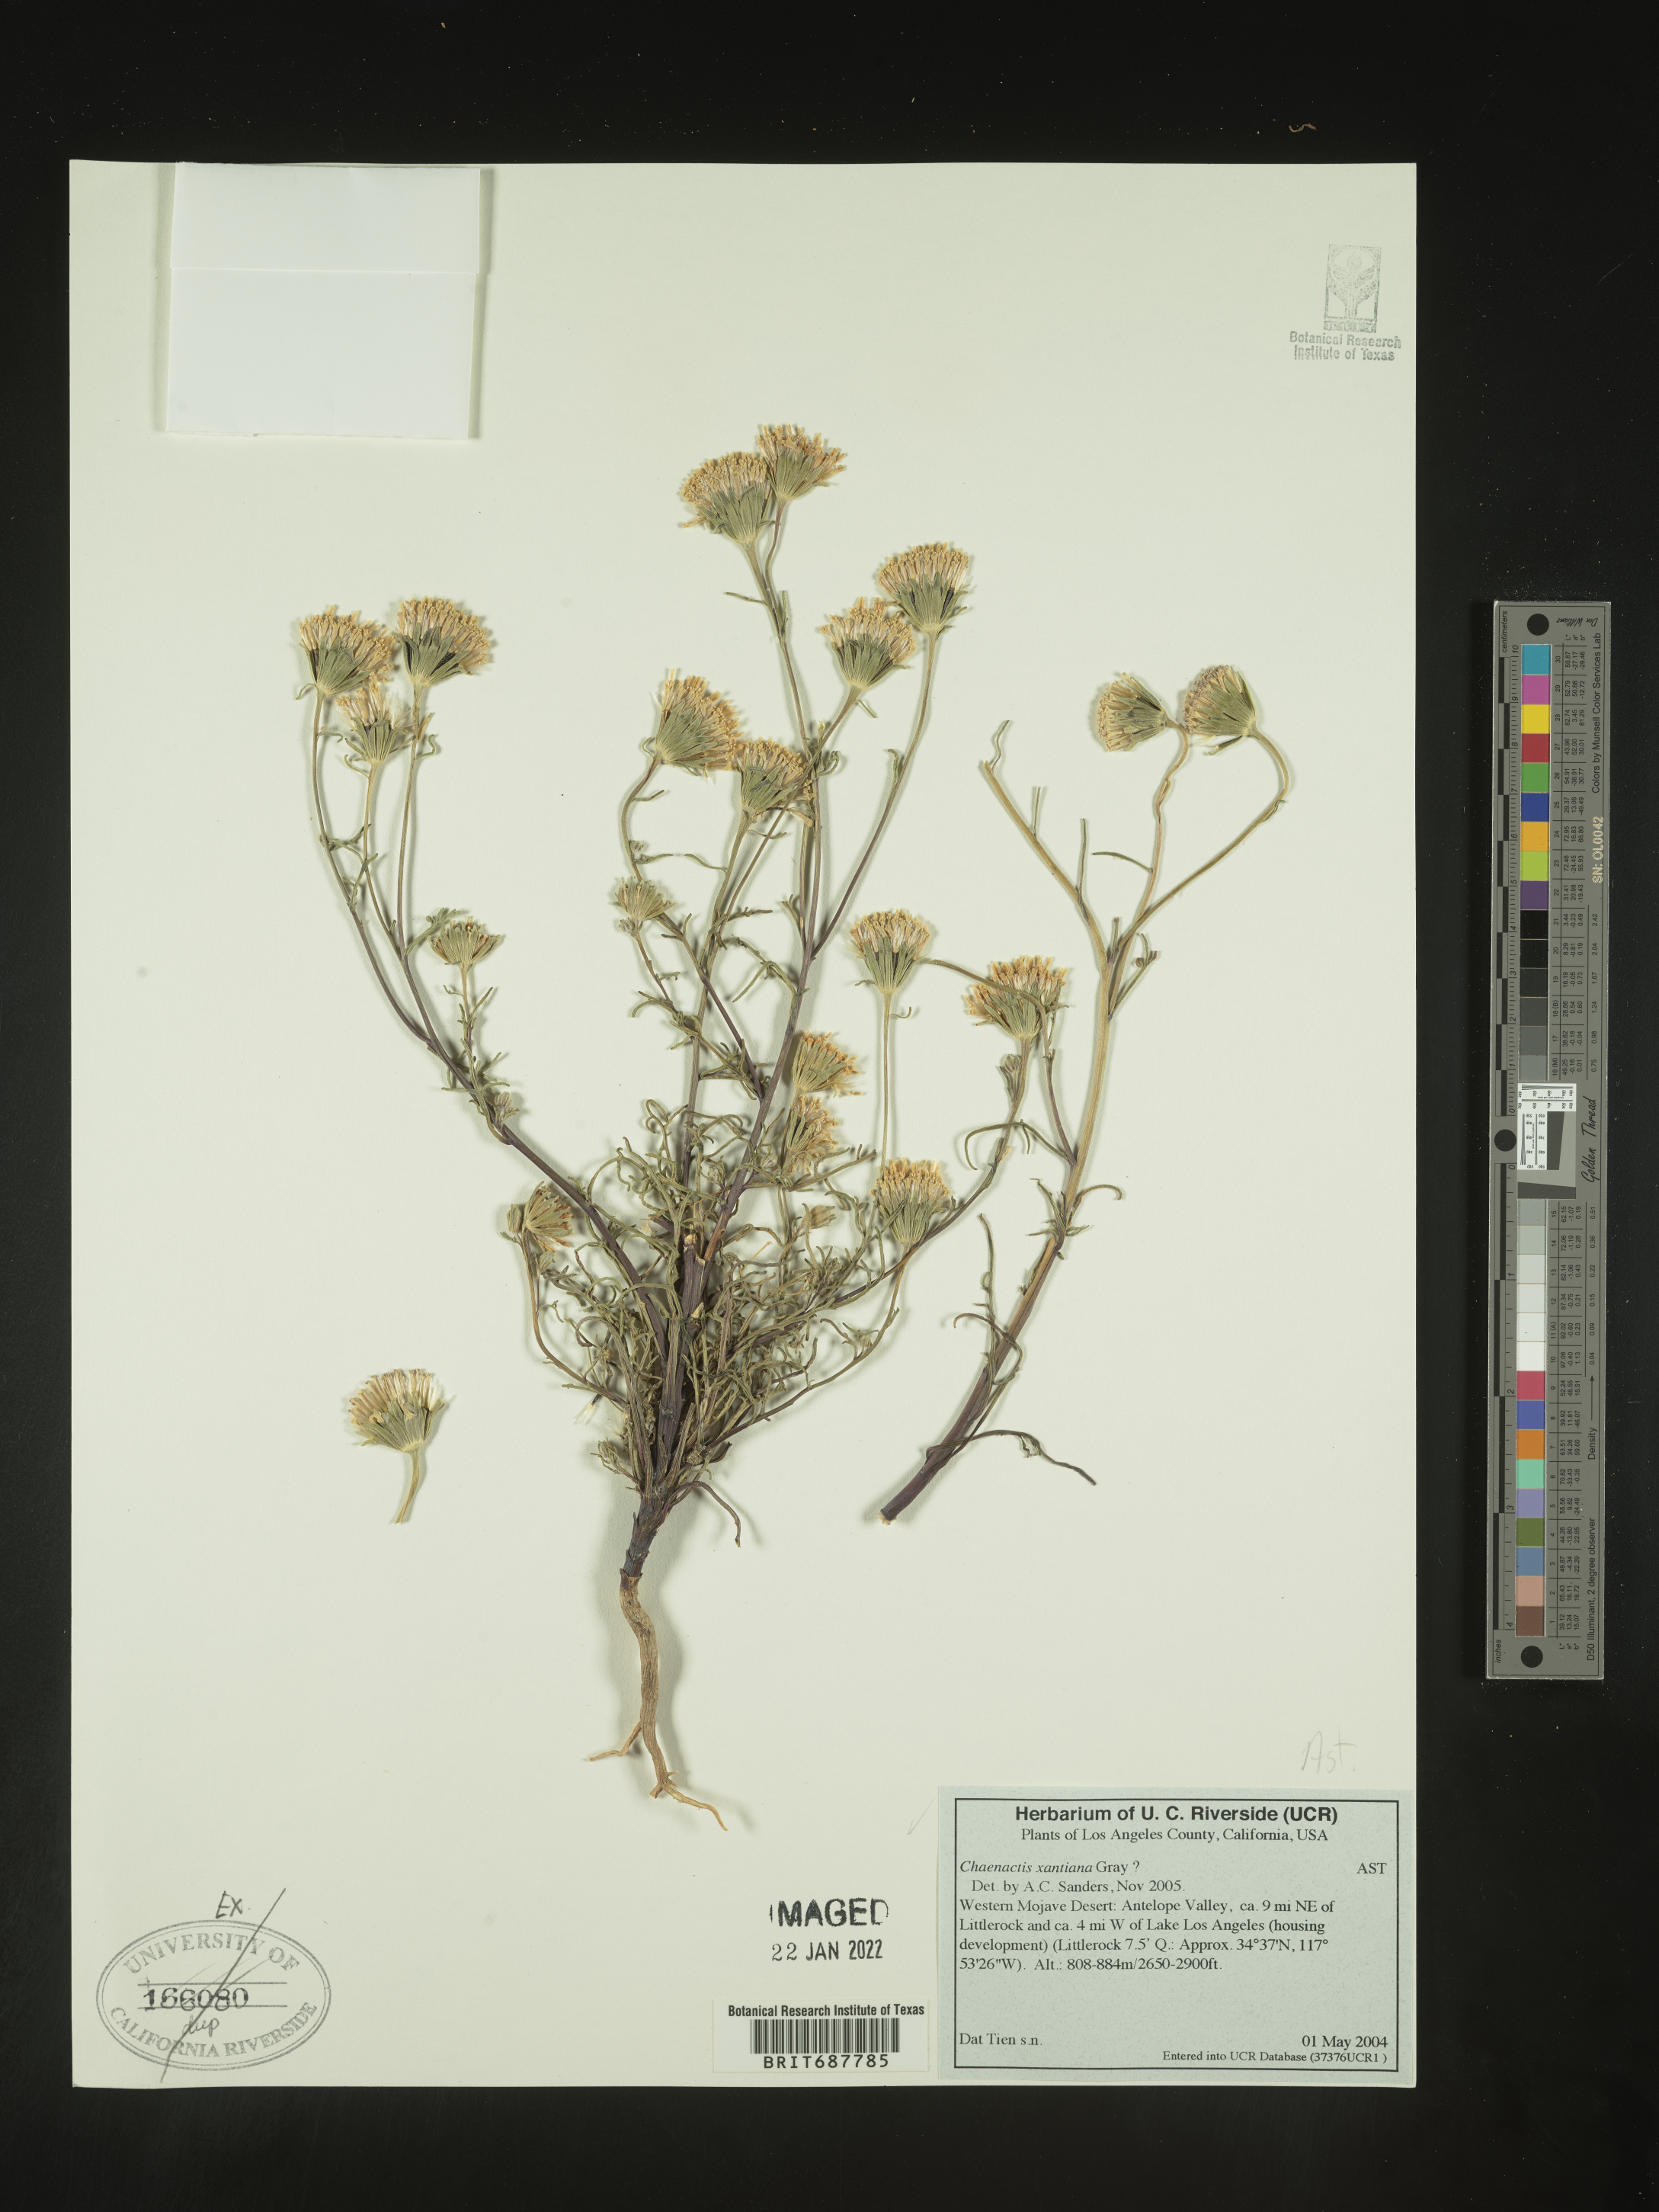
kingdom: Plantae
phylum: Tracheophyta
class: Magnoliopsida
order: Asterales
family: Asteraceae
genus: Chaenactis
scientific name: Chaenactis xantiana
